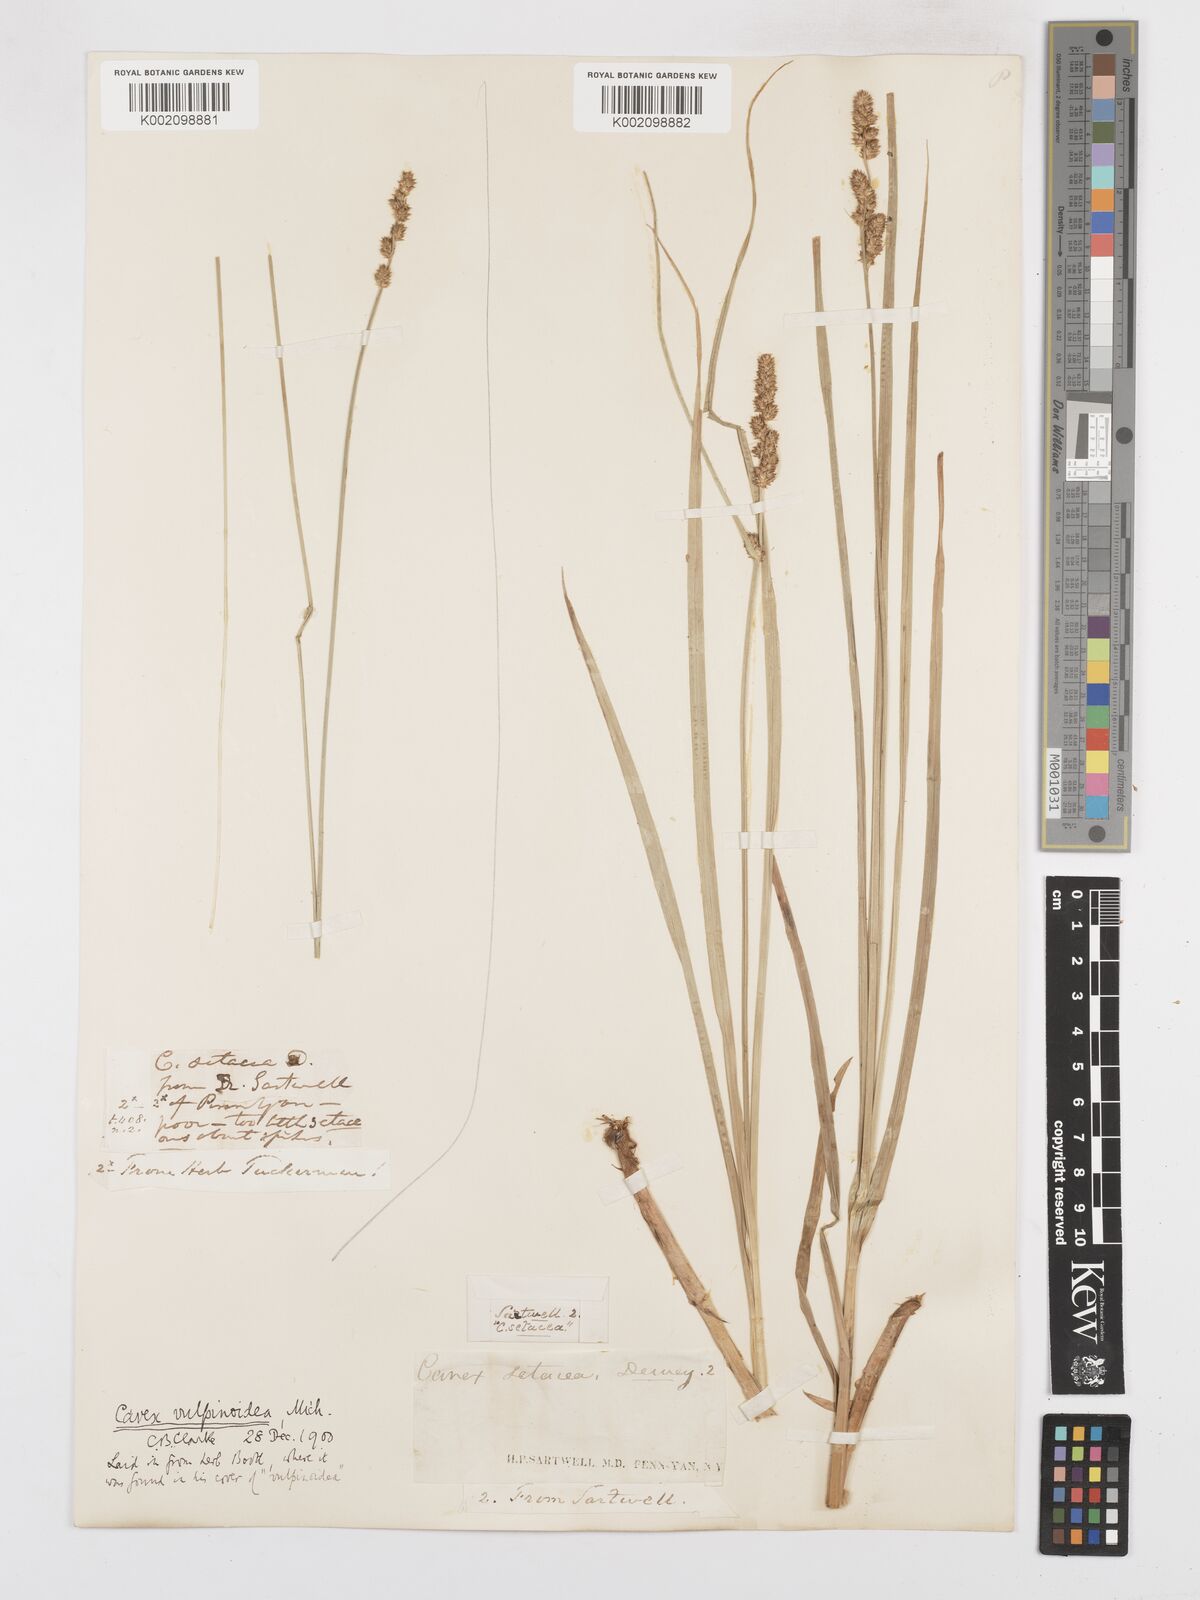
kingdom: Plantae
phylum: Tracheophyta
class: Liliopsida
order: Poales
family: Cyperaceae
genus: Carex
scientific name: Carex vulpinoidea
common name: American fox-sedge
